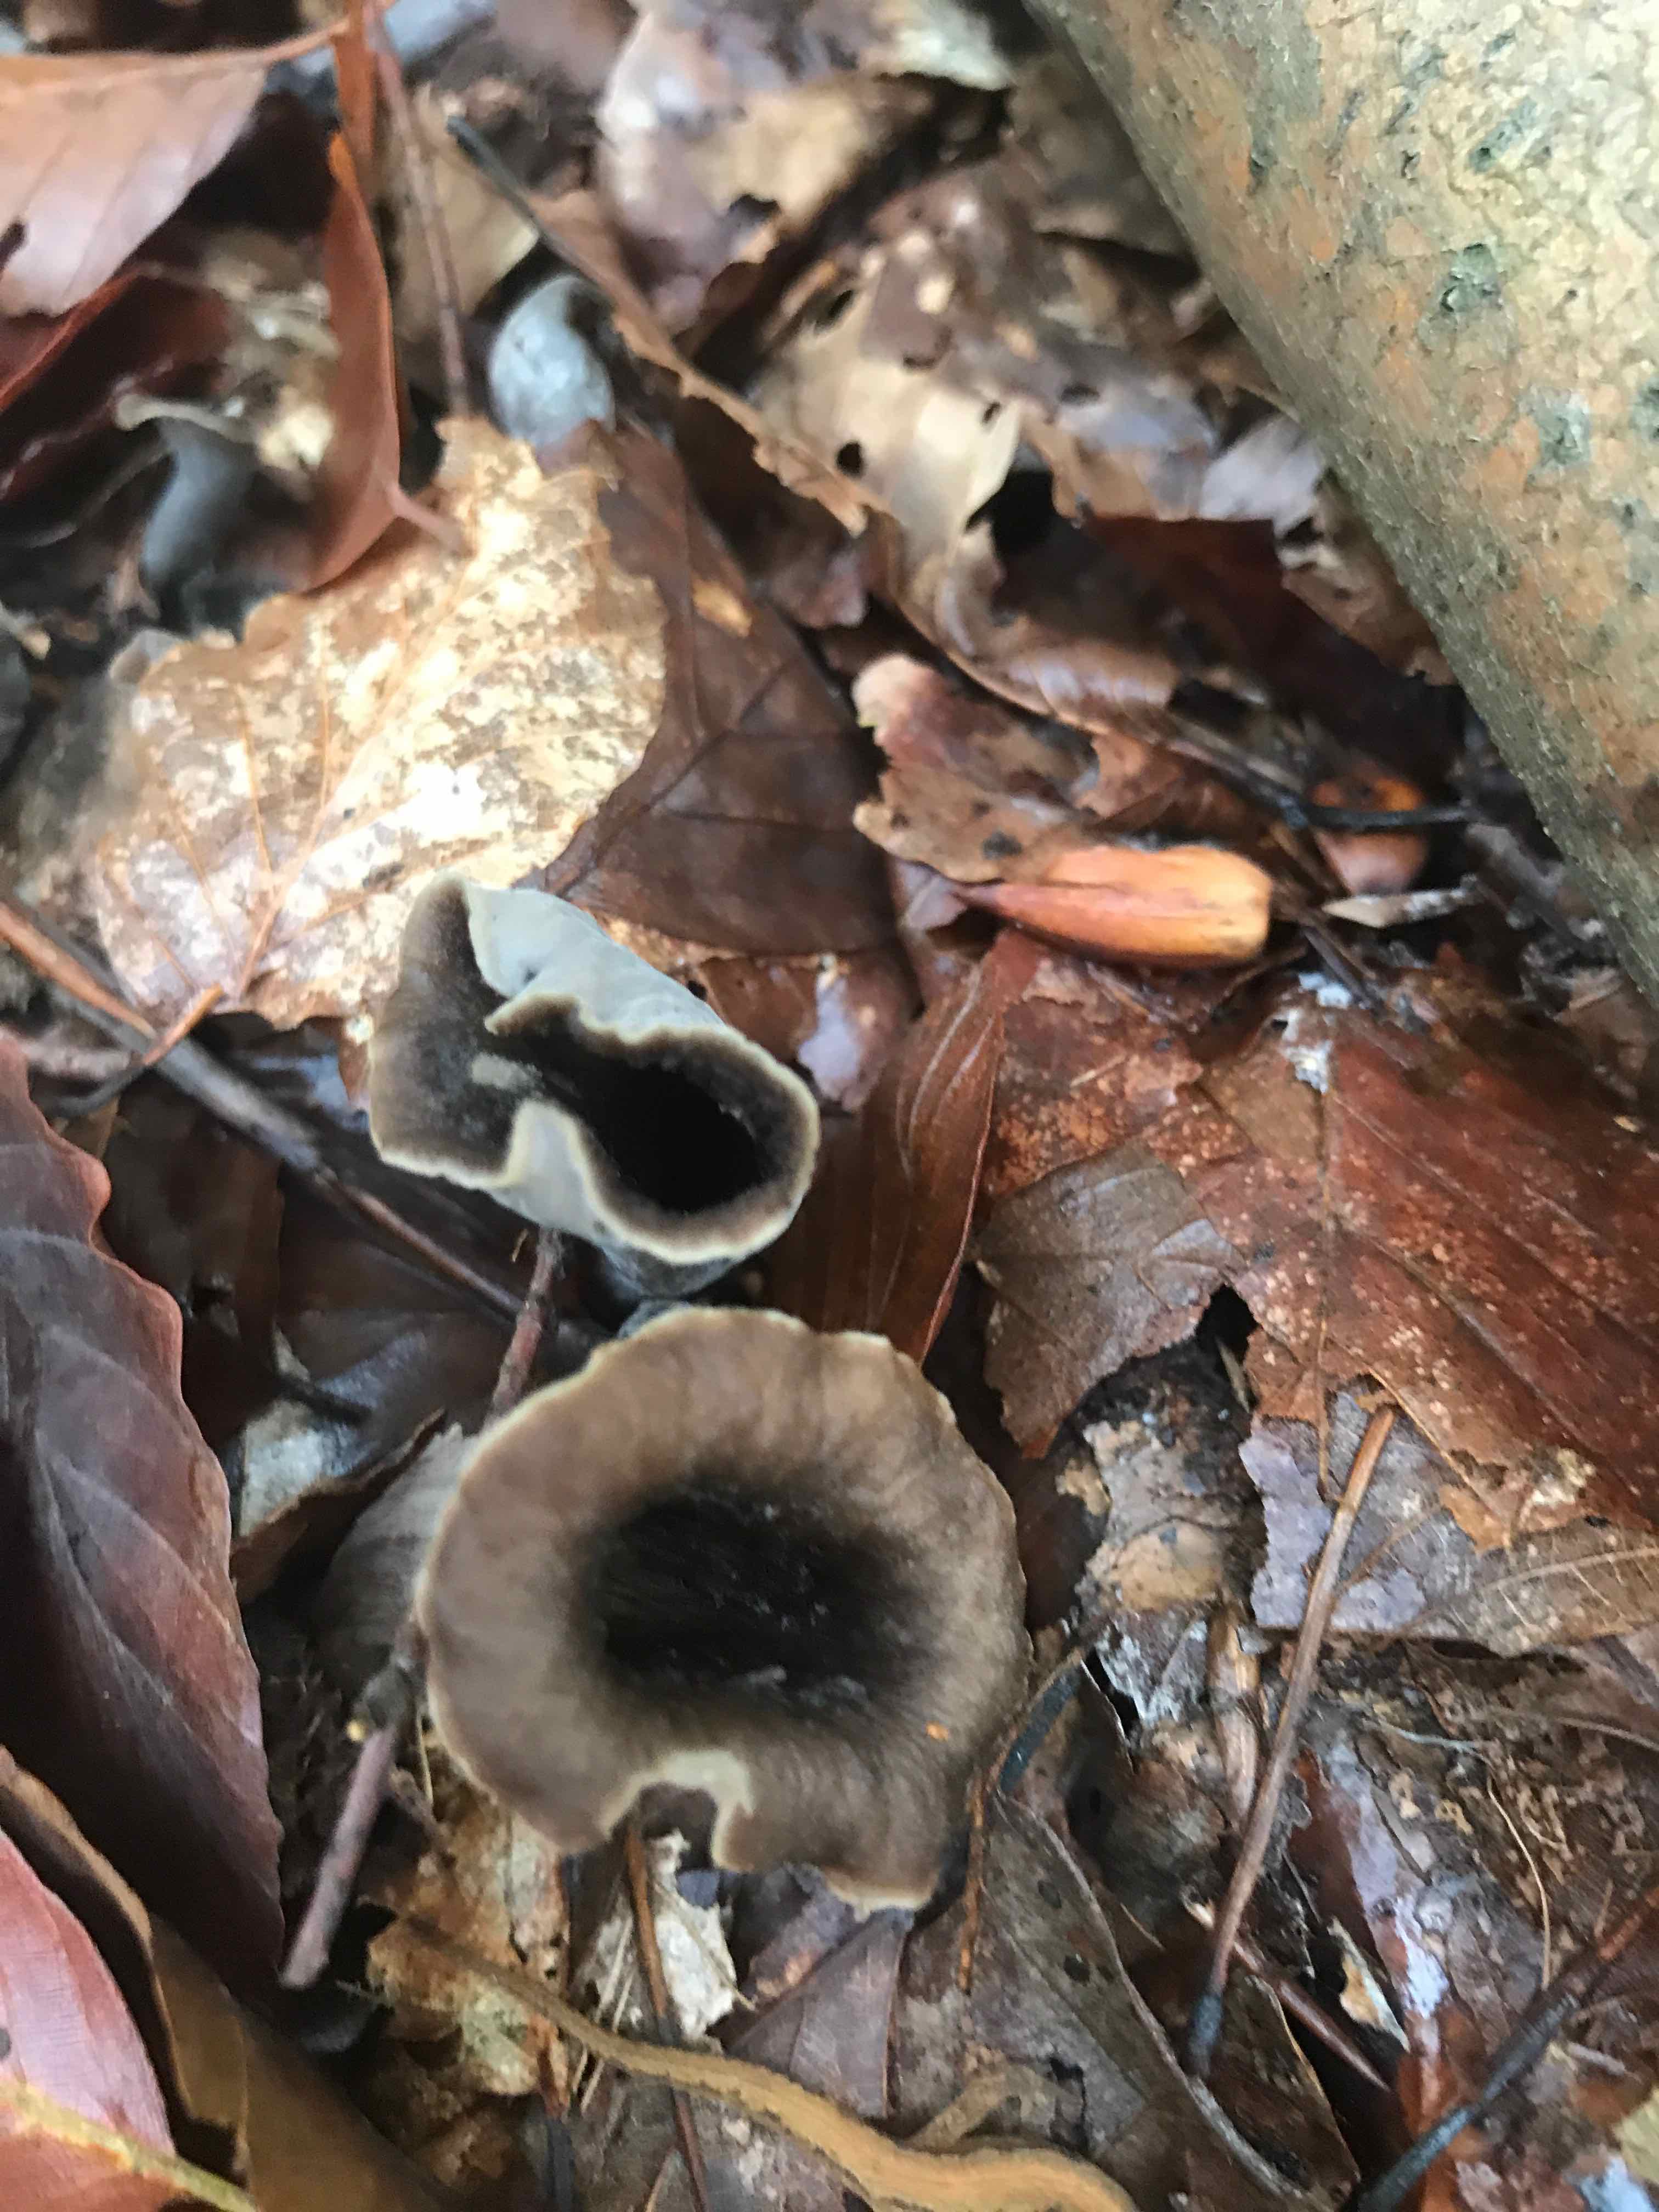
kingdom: Fungi
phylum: Basidiomycota
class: Agaricomycetes
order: Cantharellales
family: Hydnaceae
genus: Craterellus
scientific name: Craterellus cornucopioides
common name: trompetsvamp
